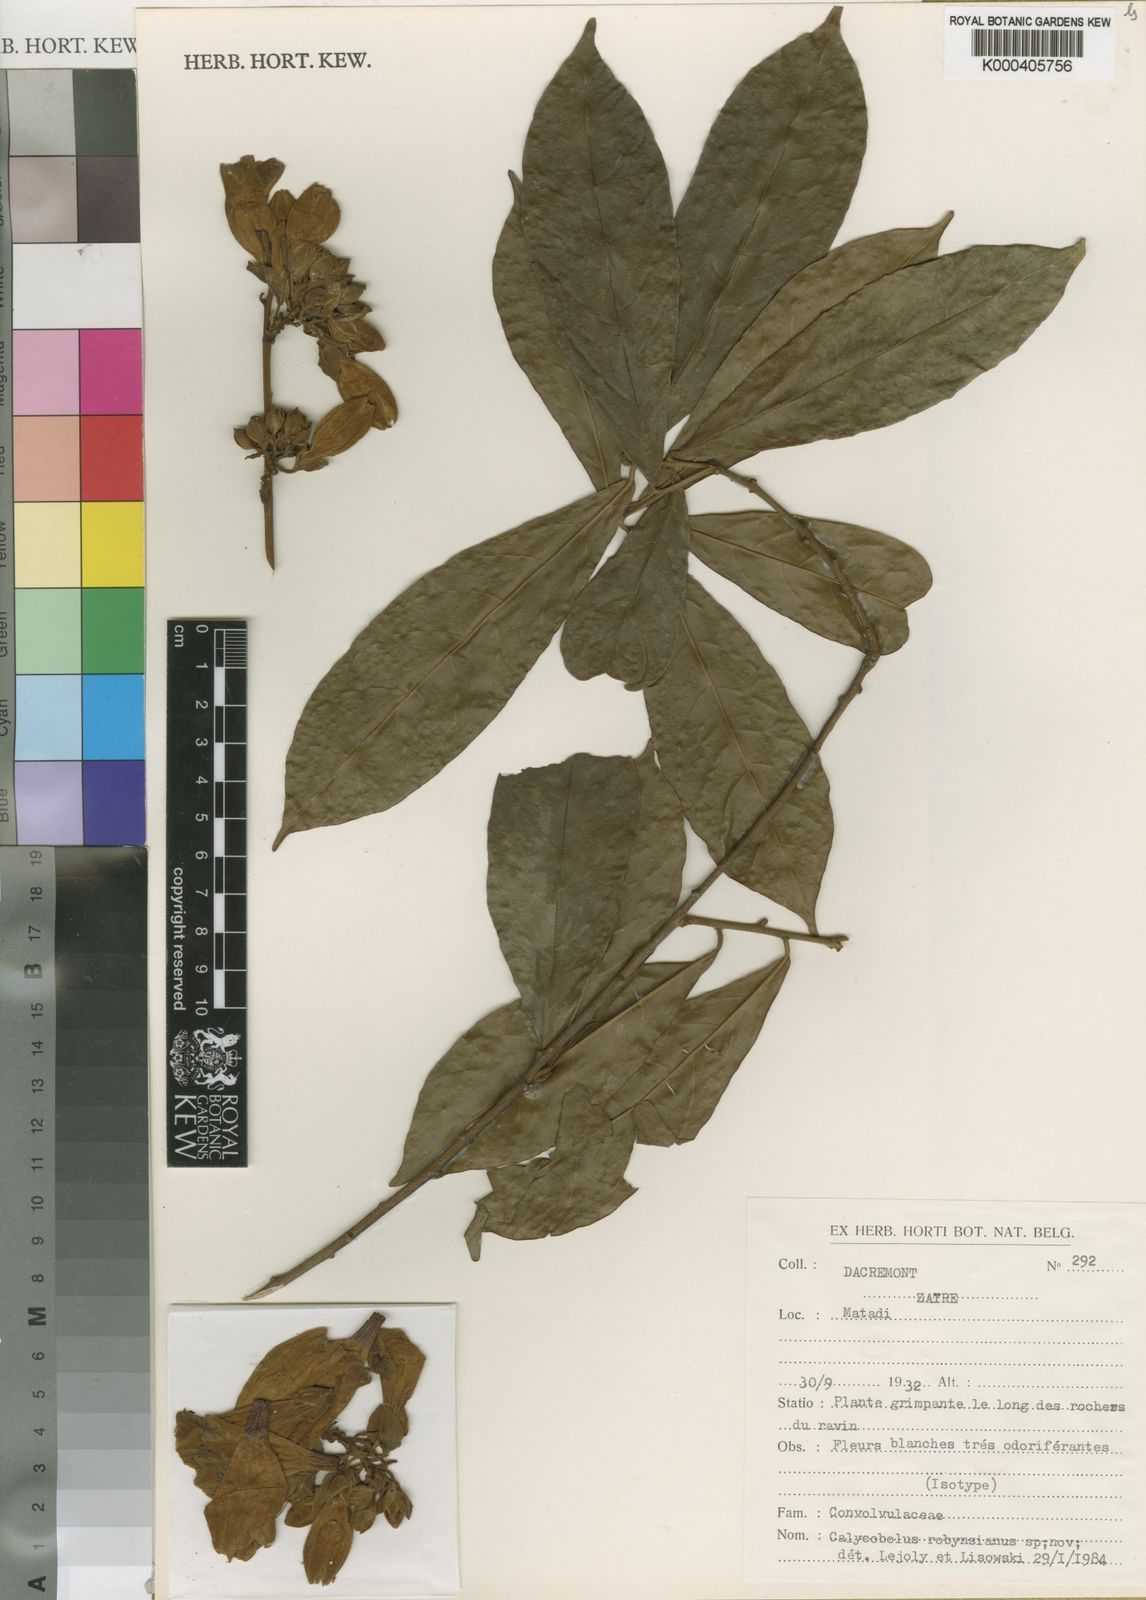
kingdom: Plantae
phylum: Tracheophyta
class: Magnoliopsida
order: Solanales
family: Convolvulaceae
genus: Calycobolus
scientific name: Calycobolus robynsianus
